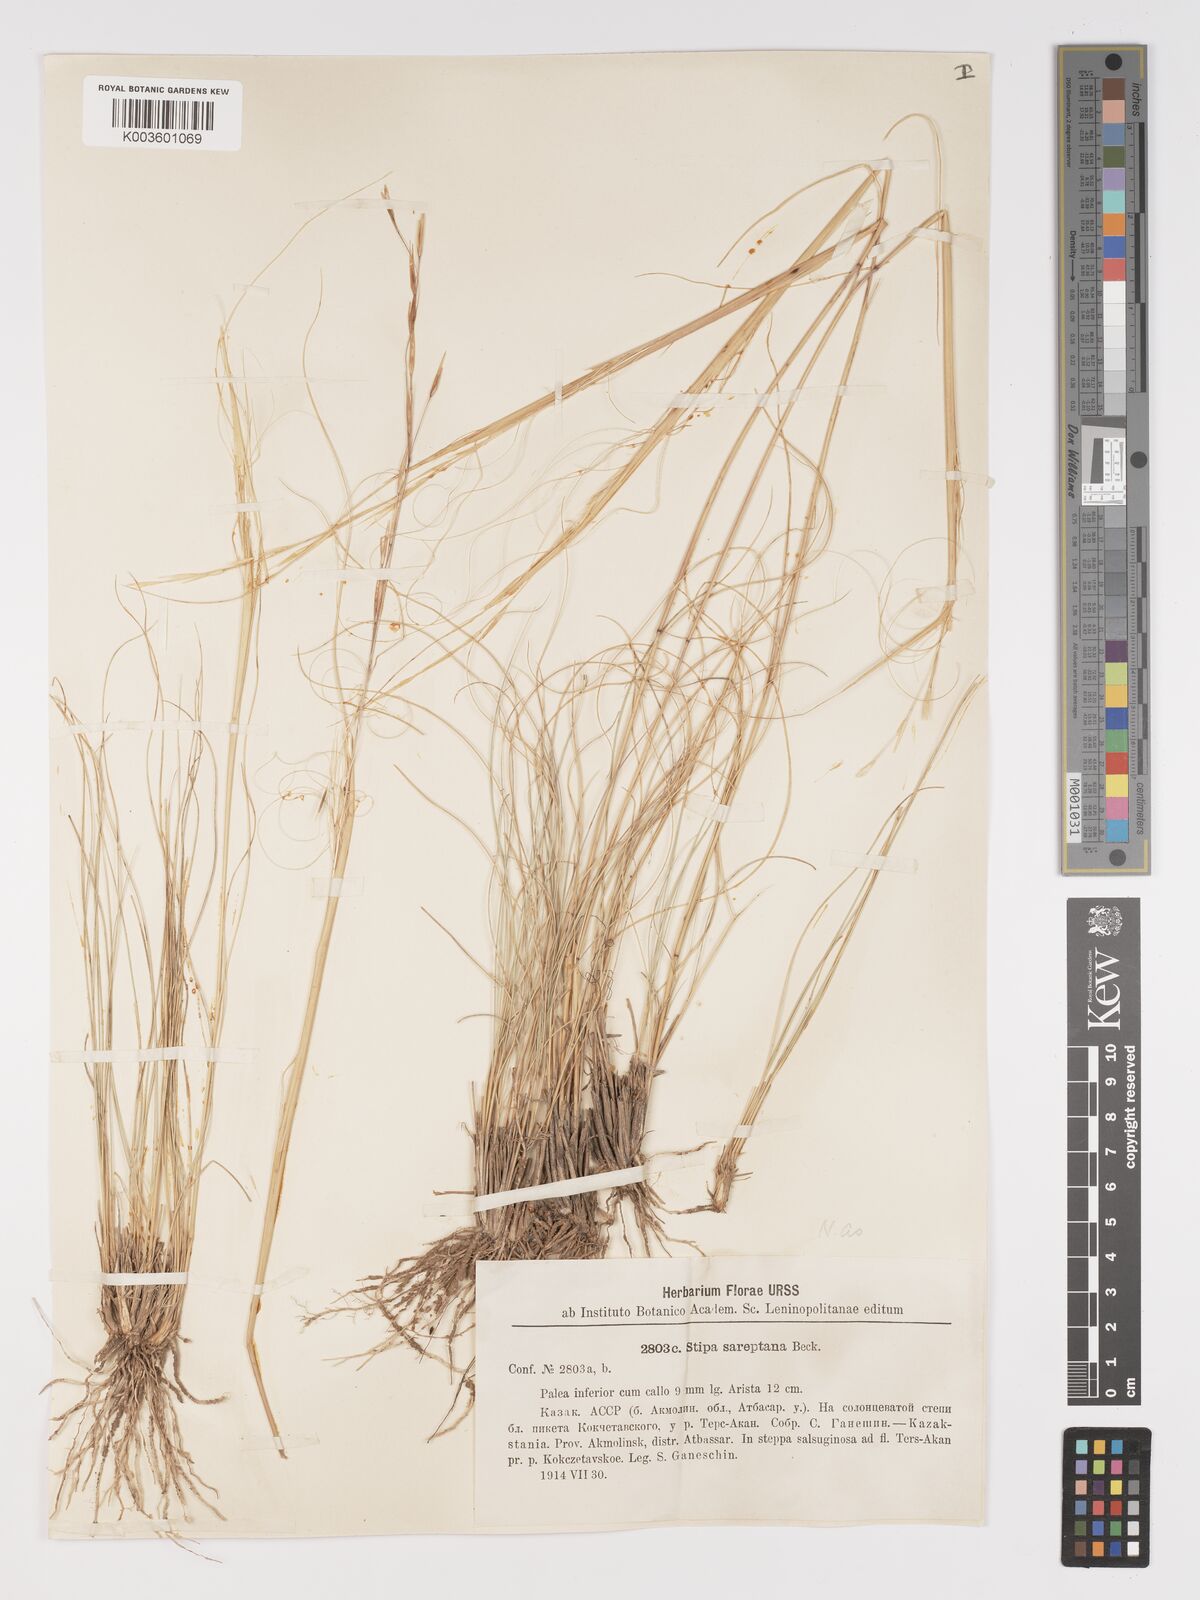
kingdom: Plantae
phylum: Tracheophyta
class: Liliopsida
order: Poales
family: Poaceae
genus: Stipa
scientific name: Stipa sareptana
